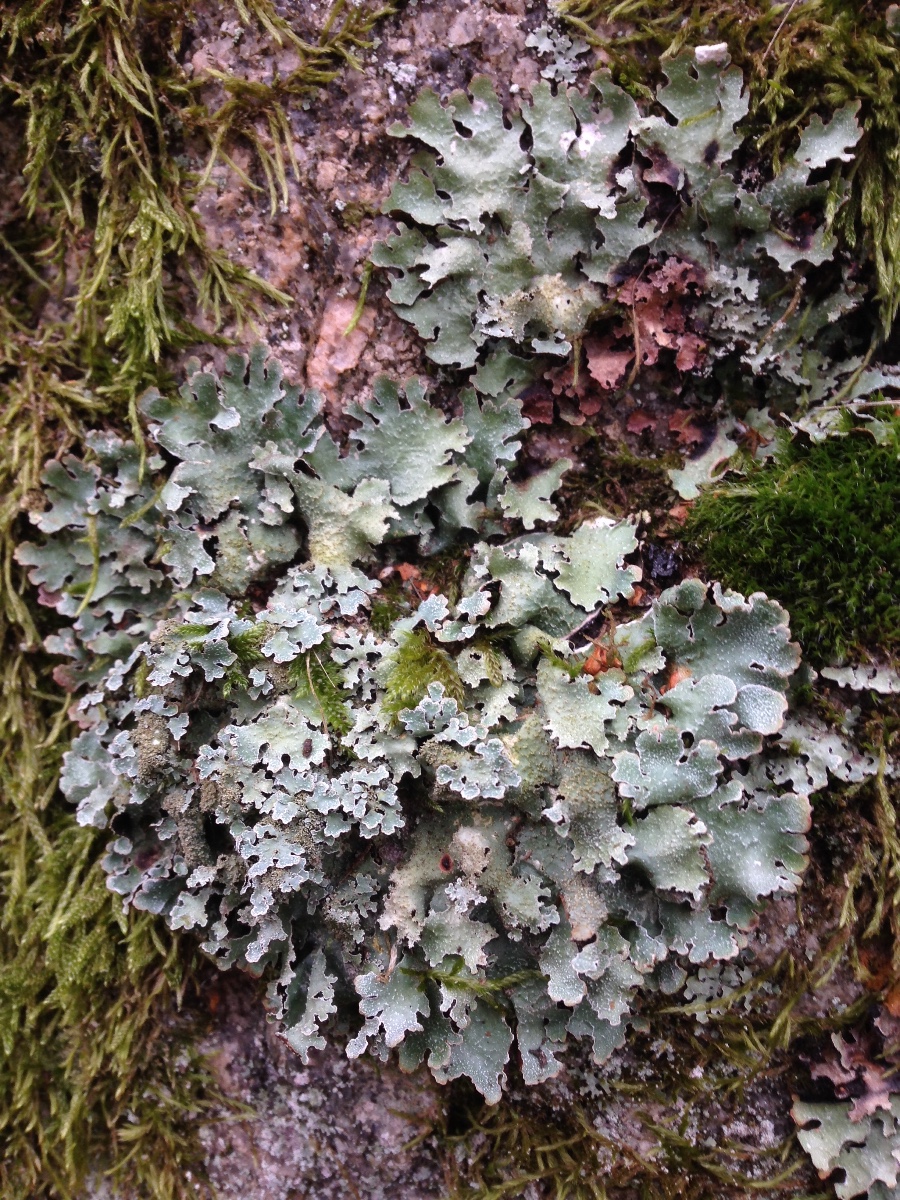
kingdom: Fungi
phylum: Ascomycota
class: Lecanoromycetes
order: Lecanorales
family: Parmeliaceae
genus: Parmelia
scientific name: Parmelia saxatilis
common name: farve-skållav
